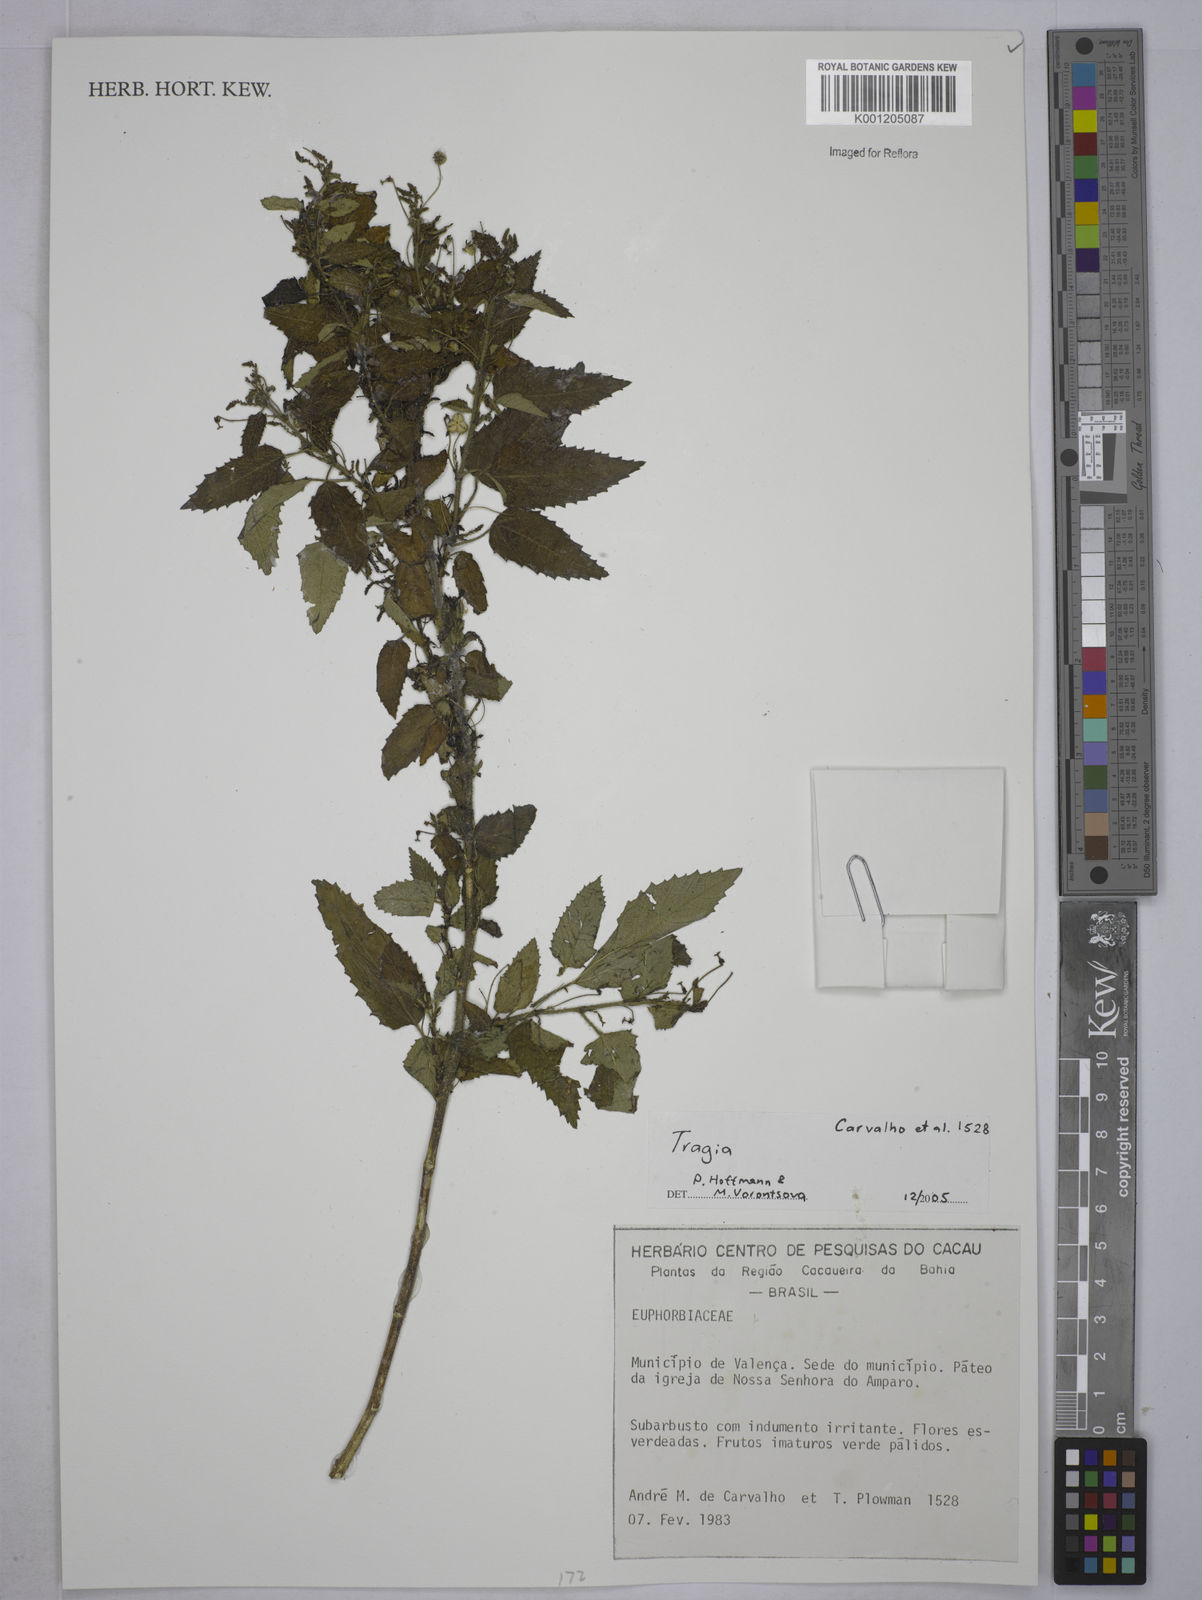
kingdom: Plantae
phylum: Tracheophyta
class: Magnoliopsida
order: Malpighiales
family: Euphorbiaceae
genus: Tragia
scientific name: Tragia
